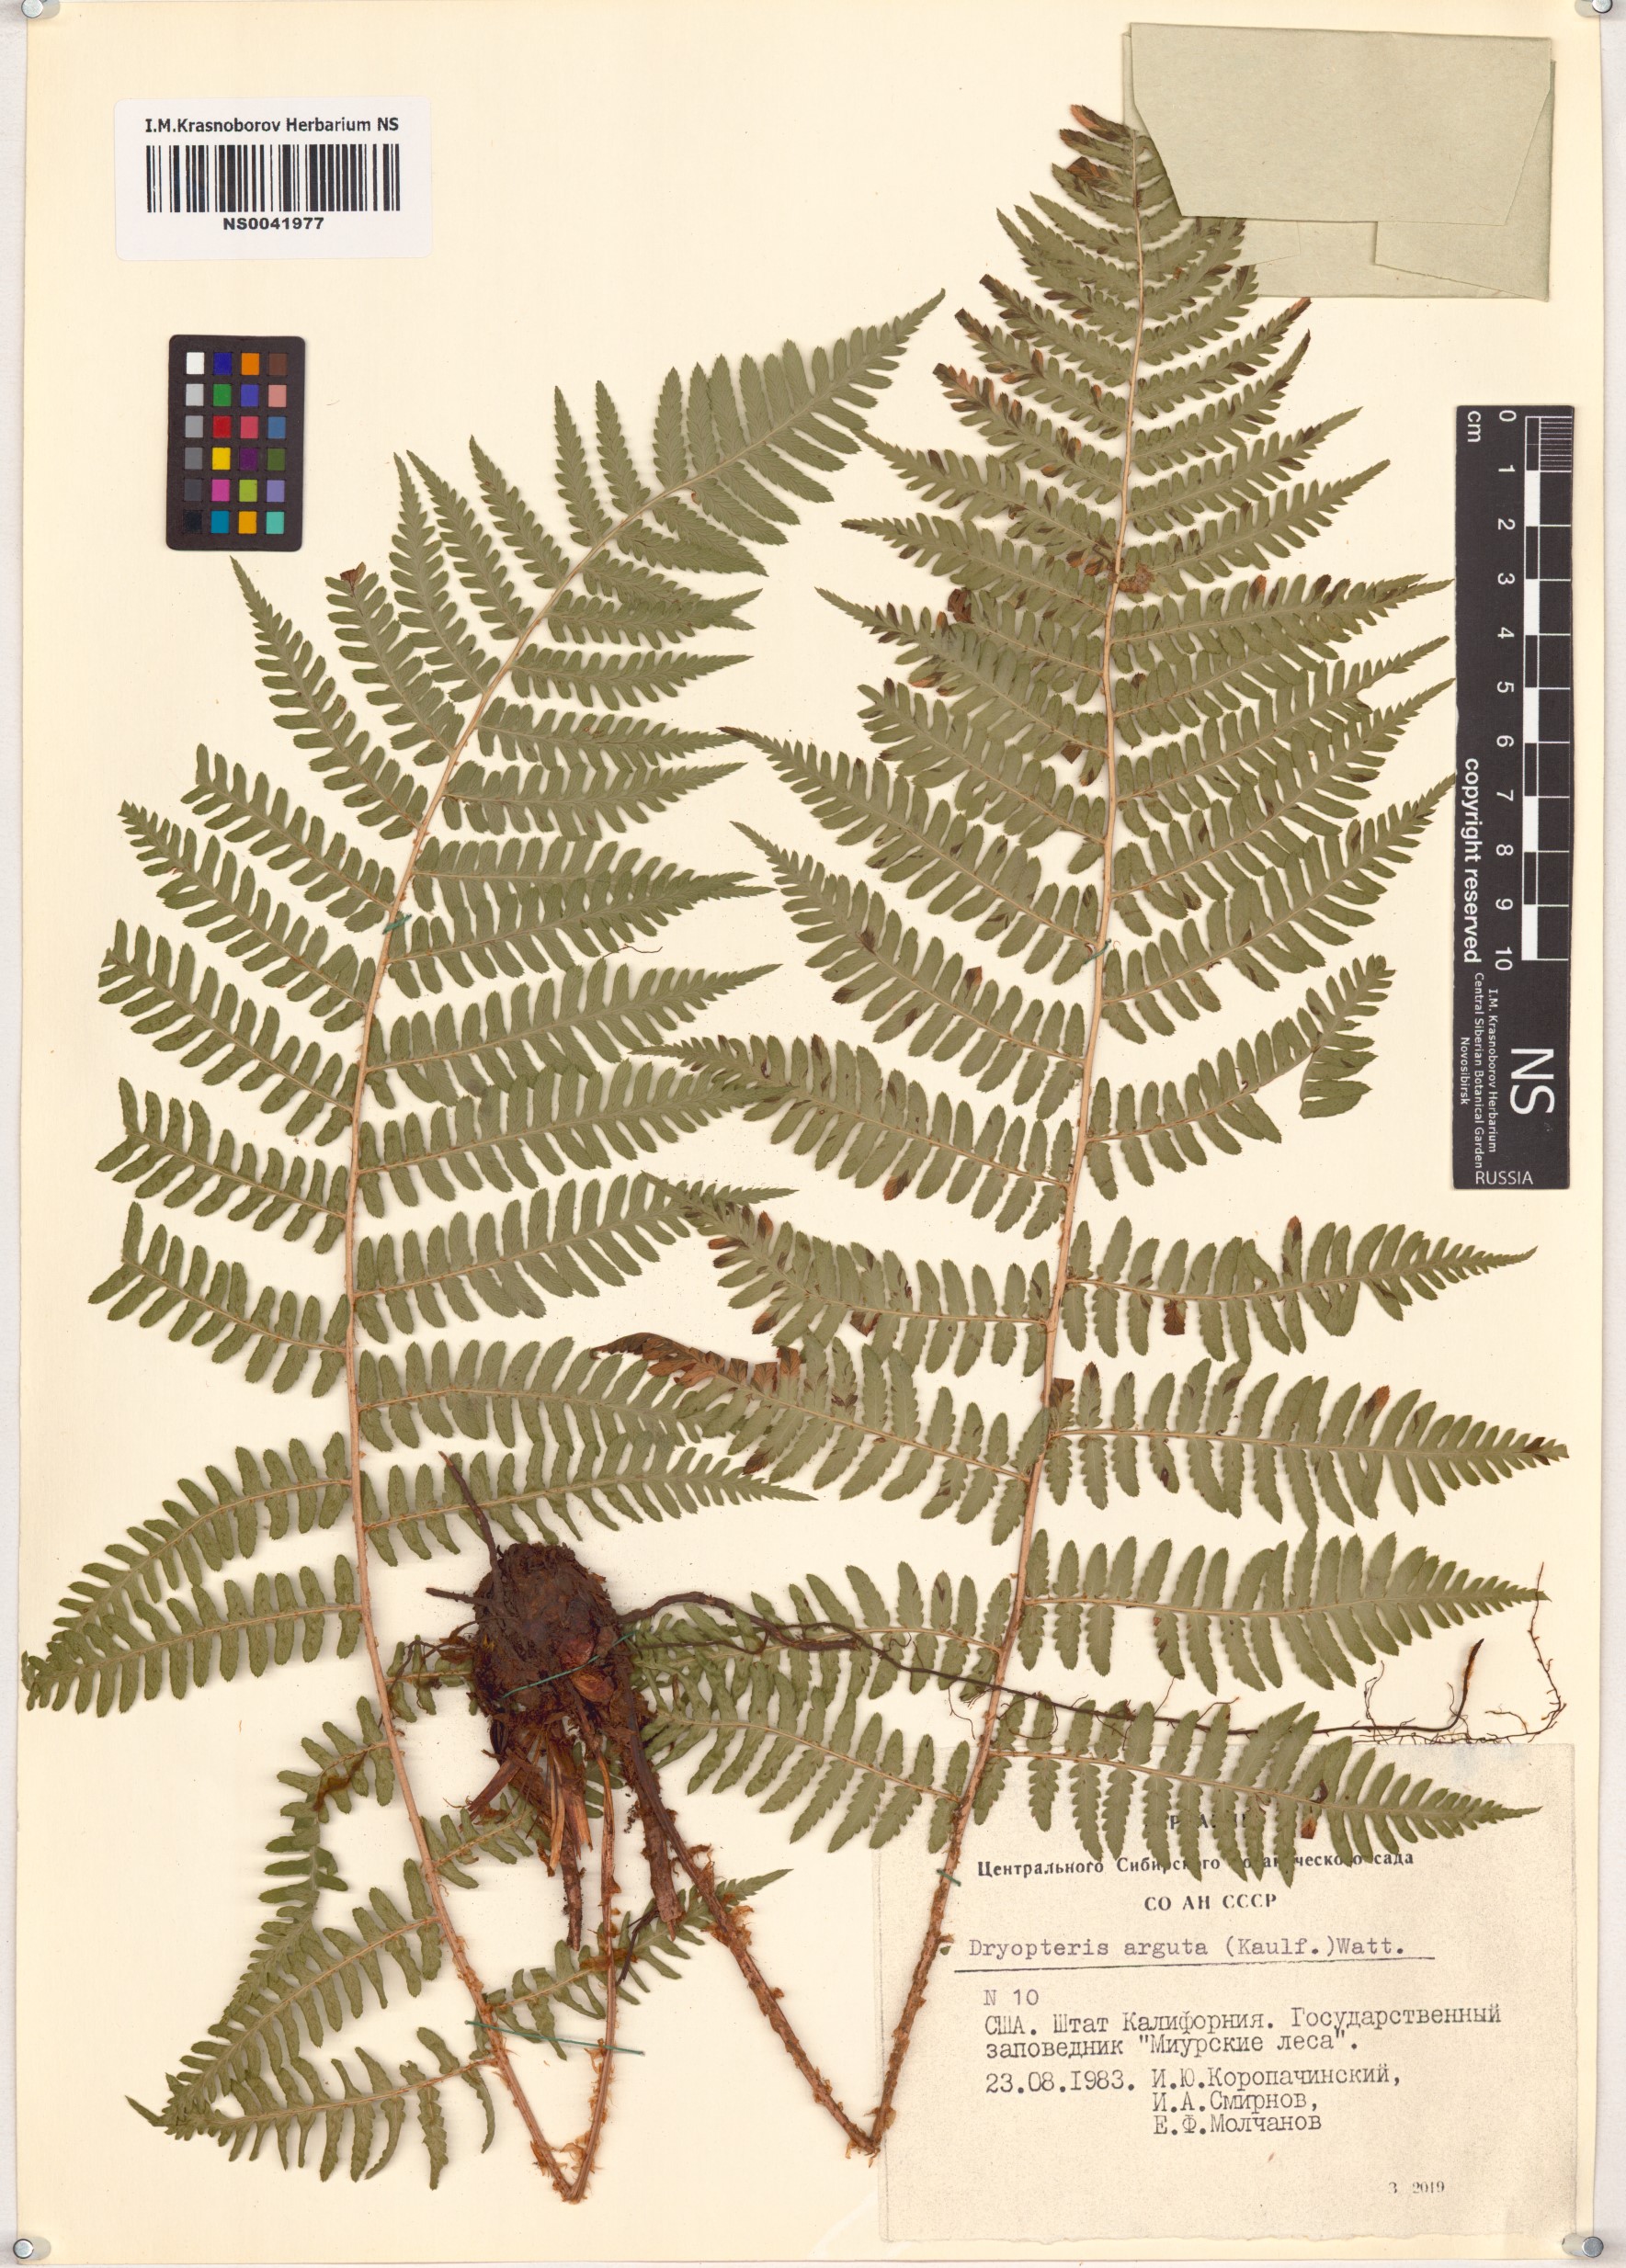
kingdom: Plantae
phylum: Tracheophyta
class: Polypodiopsida
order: Polypodiales
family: Dryopteridaceae
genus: Dryopteris
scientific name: Dryopteris arguta
